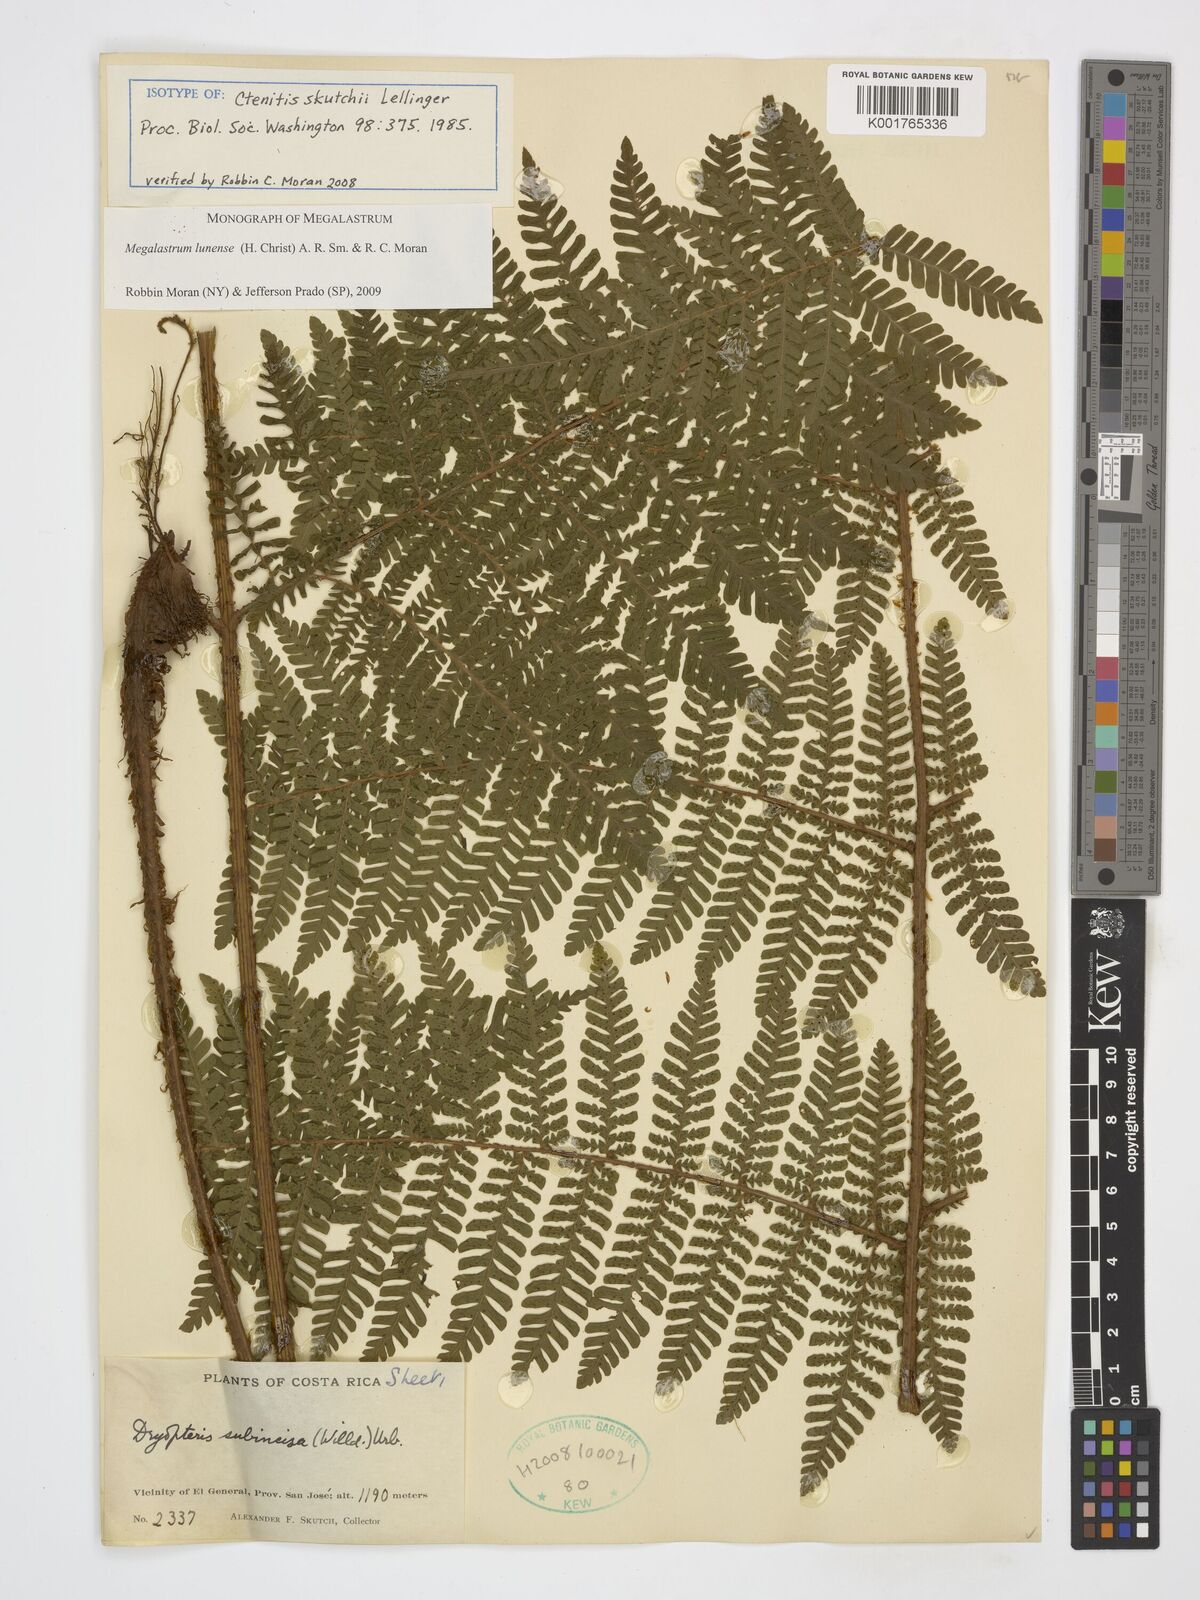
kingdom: Plantae
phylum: Tracheophyta
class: Polypodiopsida
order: Polypodiales
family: Dryopteridaceae
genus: Megalastrum
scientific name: Megalastrum lunense
